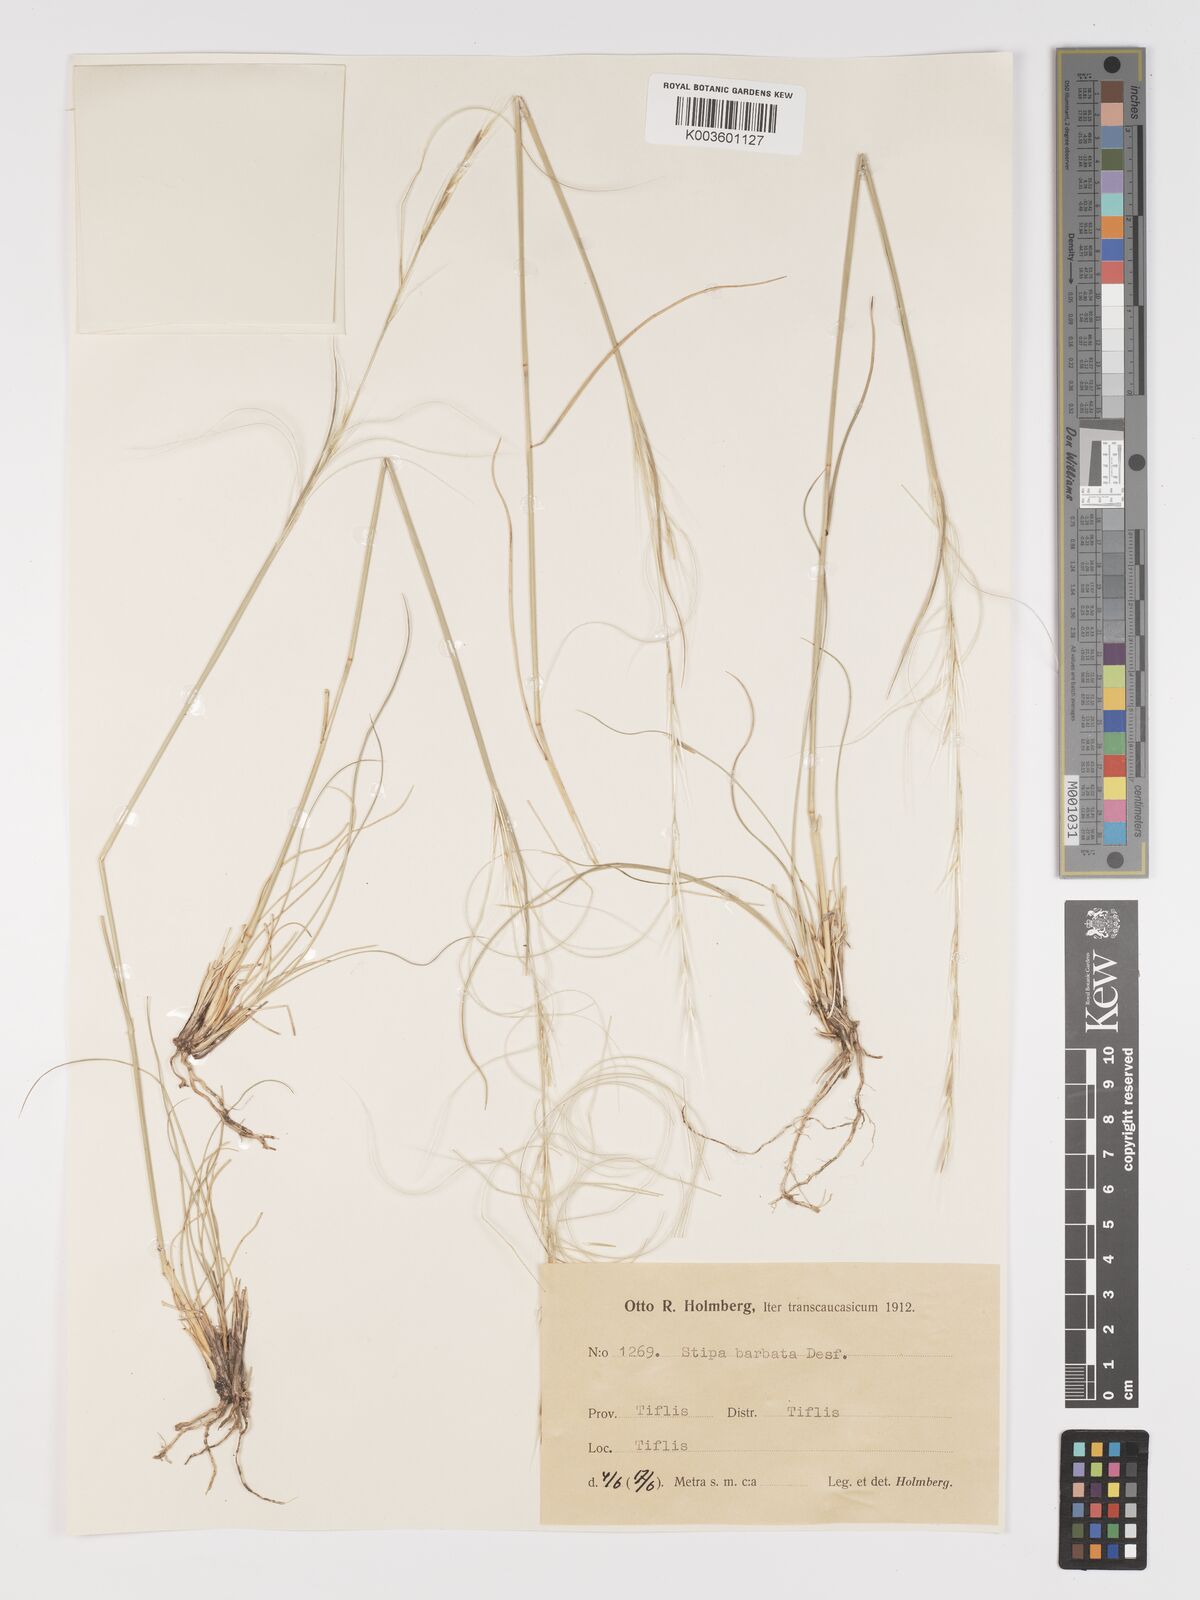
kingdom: Plantae
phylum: Tracheophyta
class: Liliopsida
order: Poales
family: Poaceae
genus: Stipa
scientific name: Stipa arabica
